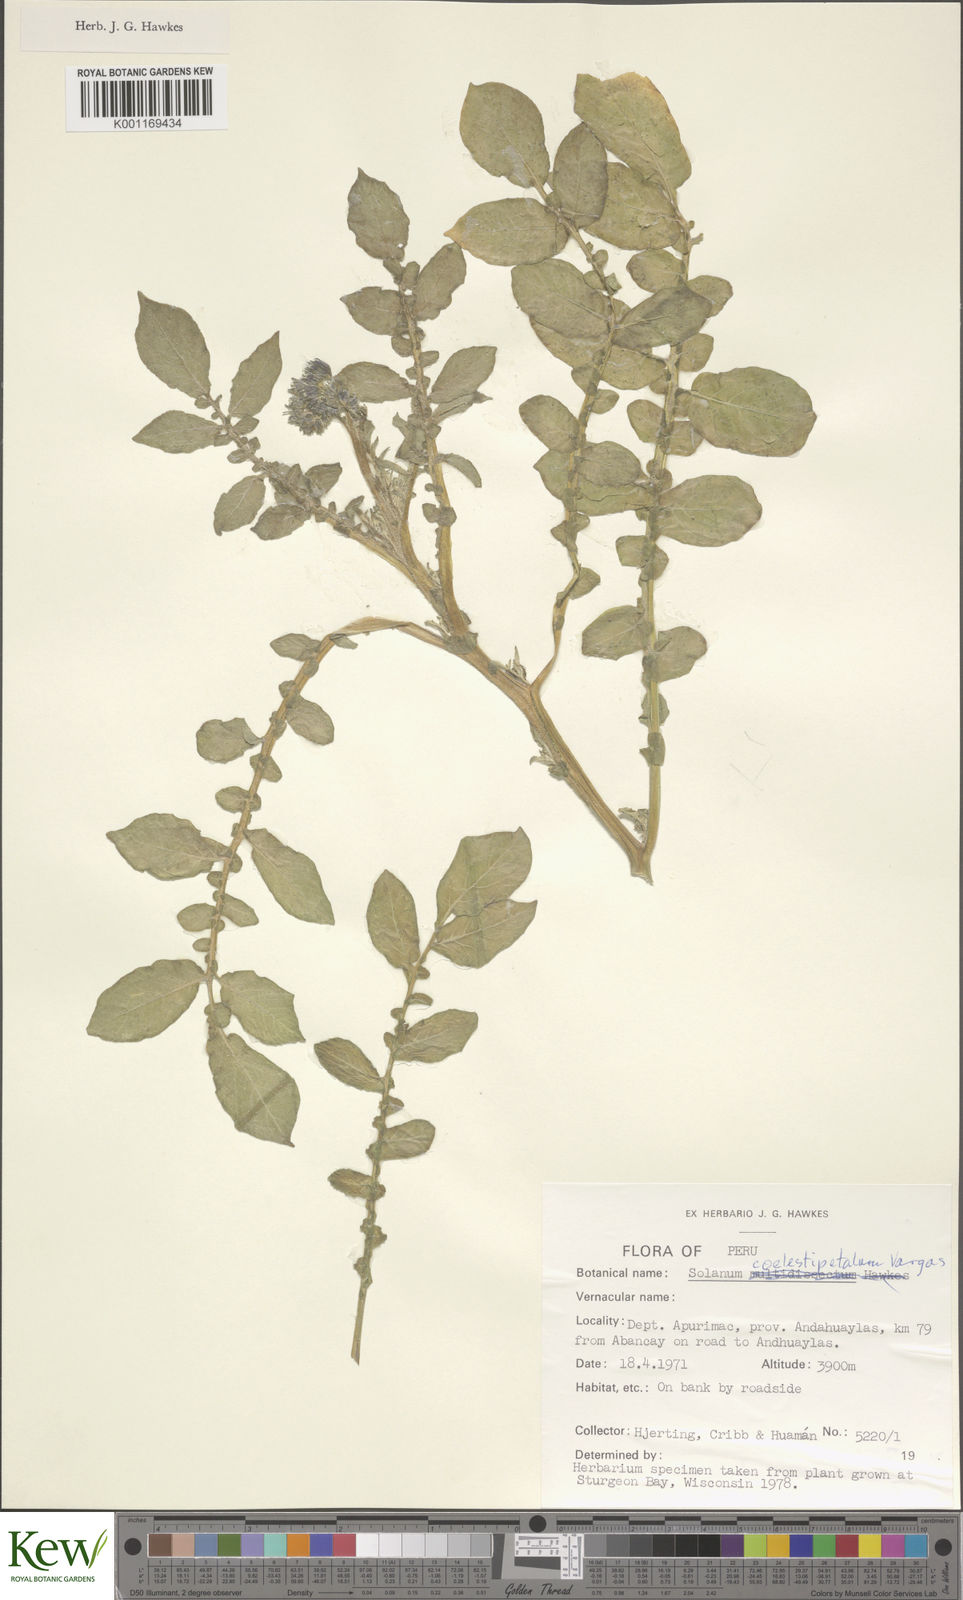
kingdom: Plantae
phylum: Tracheophyta
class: Magnoliopsida
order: Solanales
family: Solanaceae
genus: Solanum
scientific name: Solanum brevicaule
